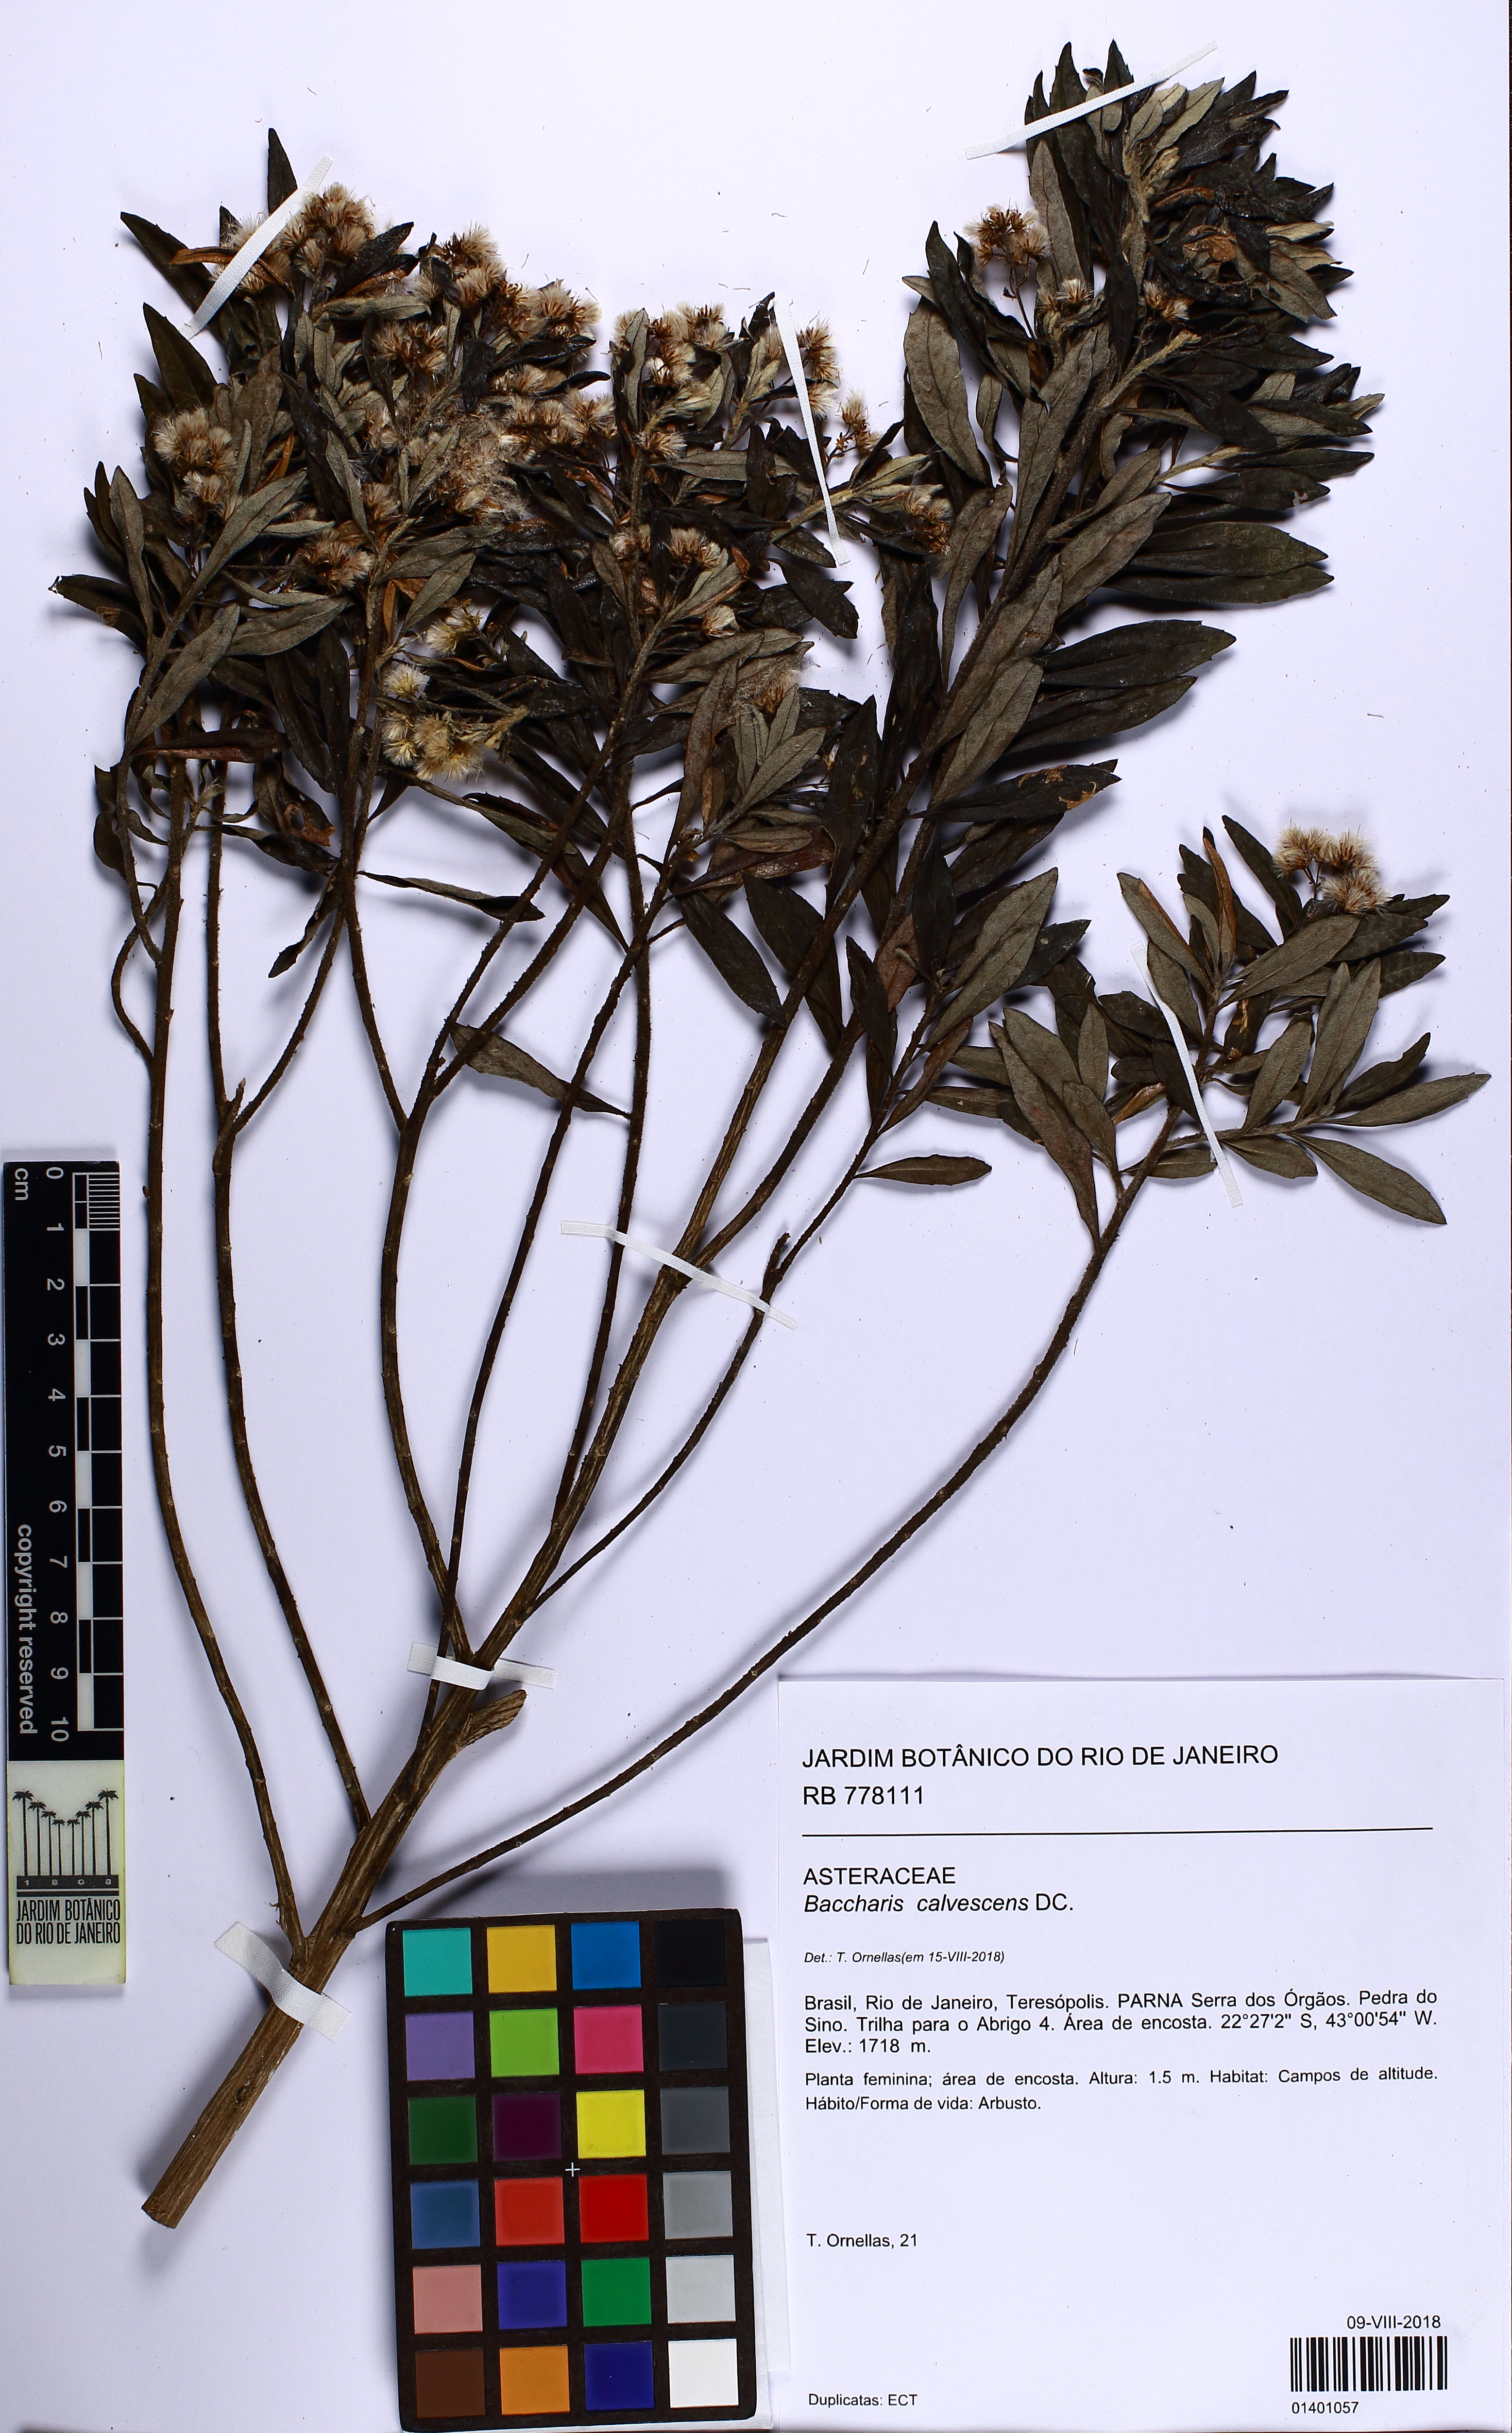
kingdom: Plantae
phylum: Tracheophyta
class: Magnoliopsida
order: Asterales
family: Asteraceae
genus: Baccharis
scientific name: Baccharis calvescens
